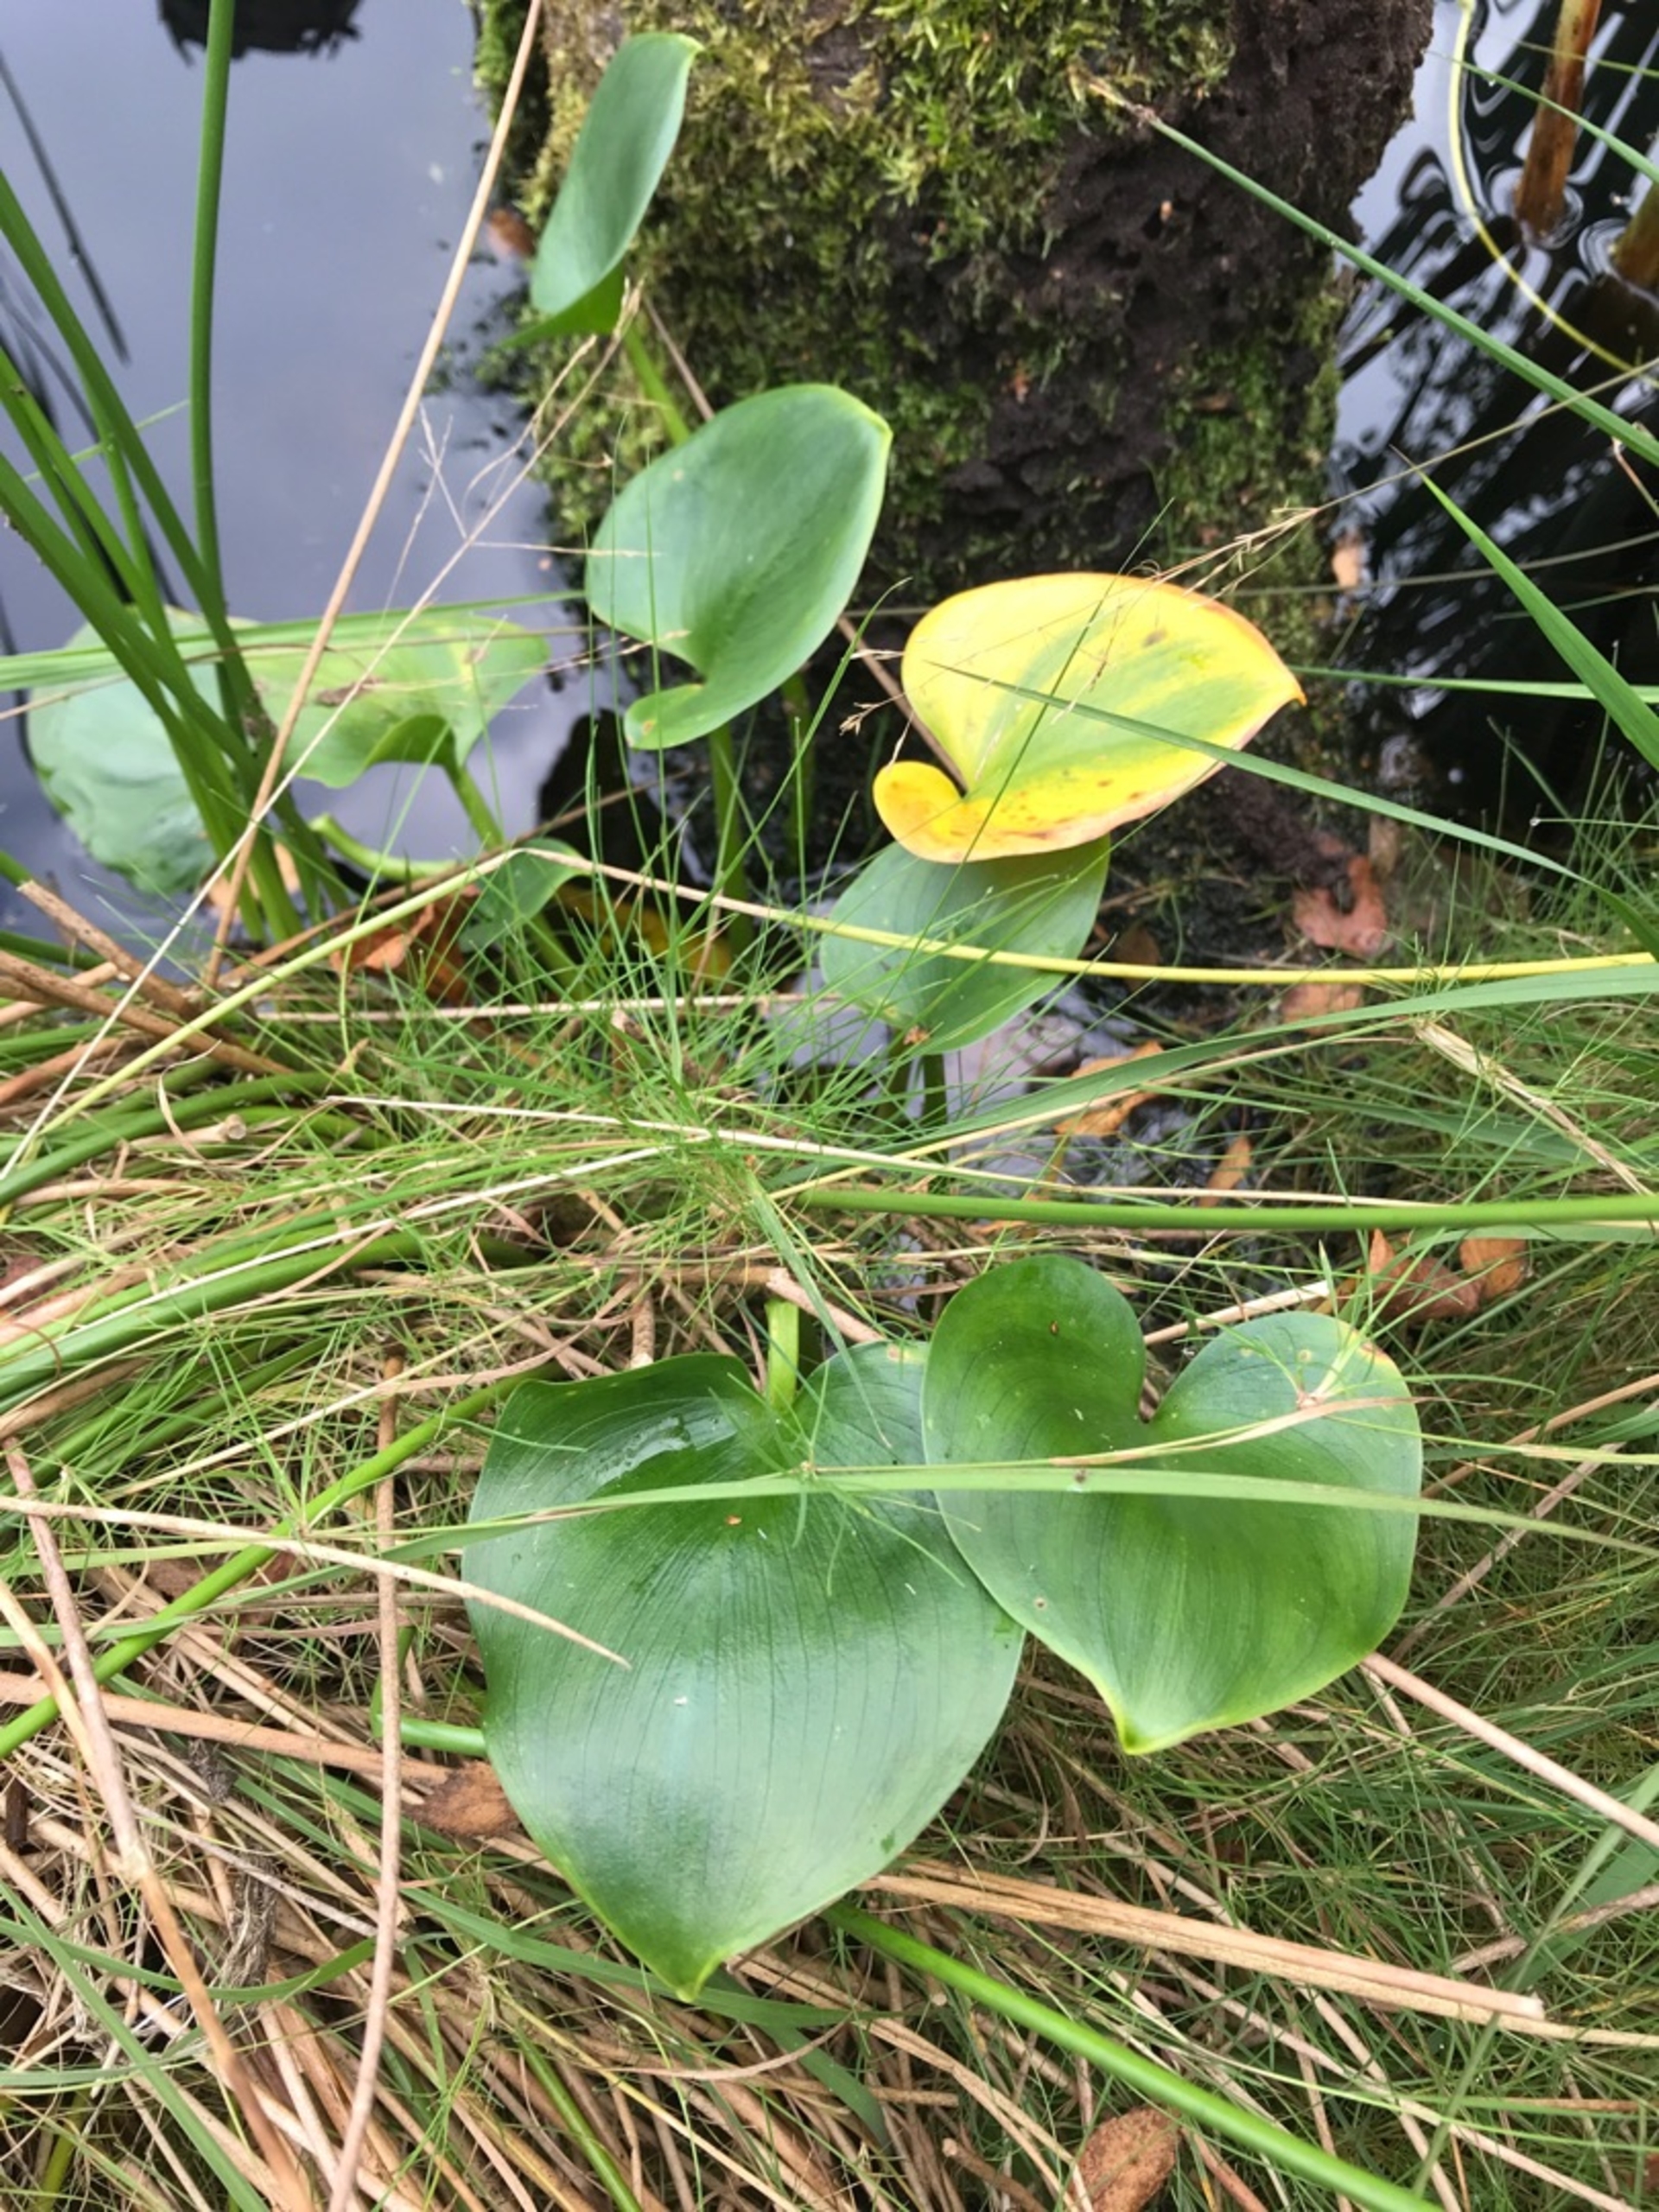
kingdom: Plantae
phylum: Tracheophyta
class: Liliopsida
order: Alismatales
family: Araceae
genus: Calla
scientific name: Calla palustris
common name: Kærmysse
